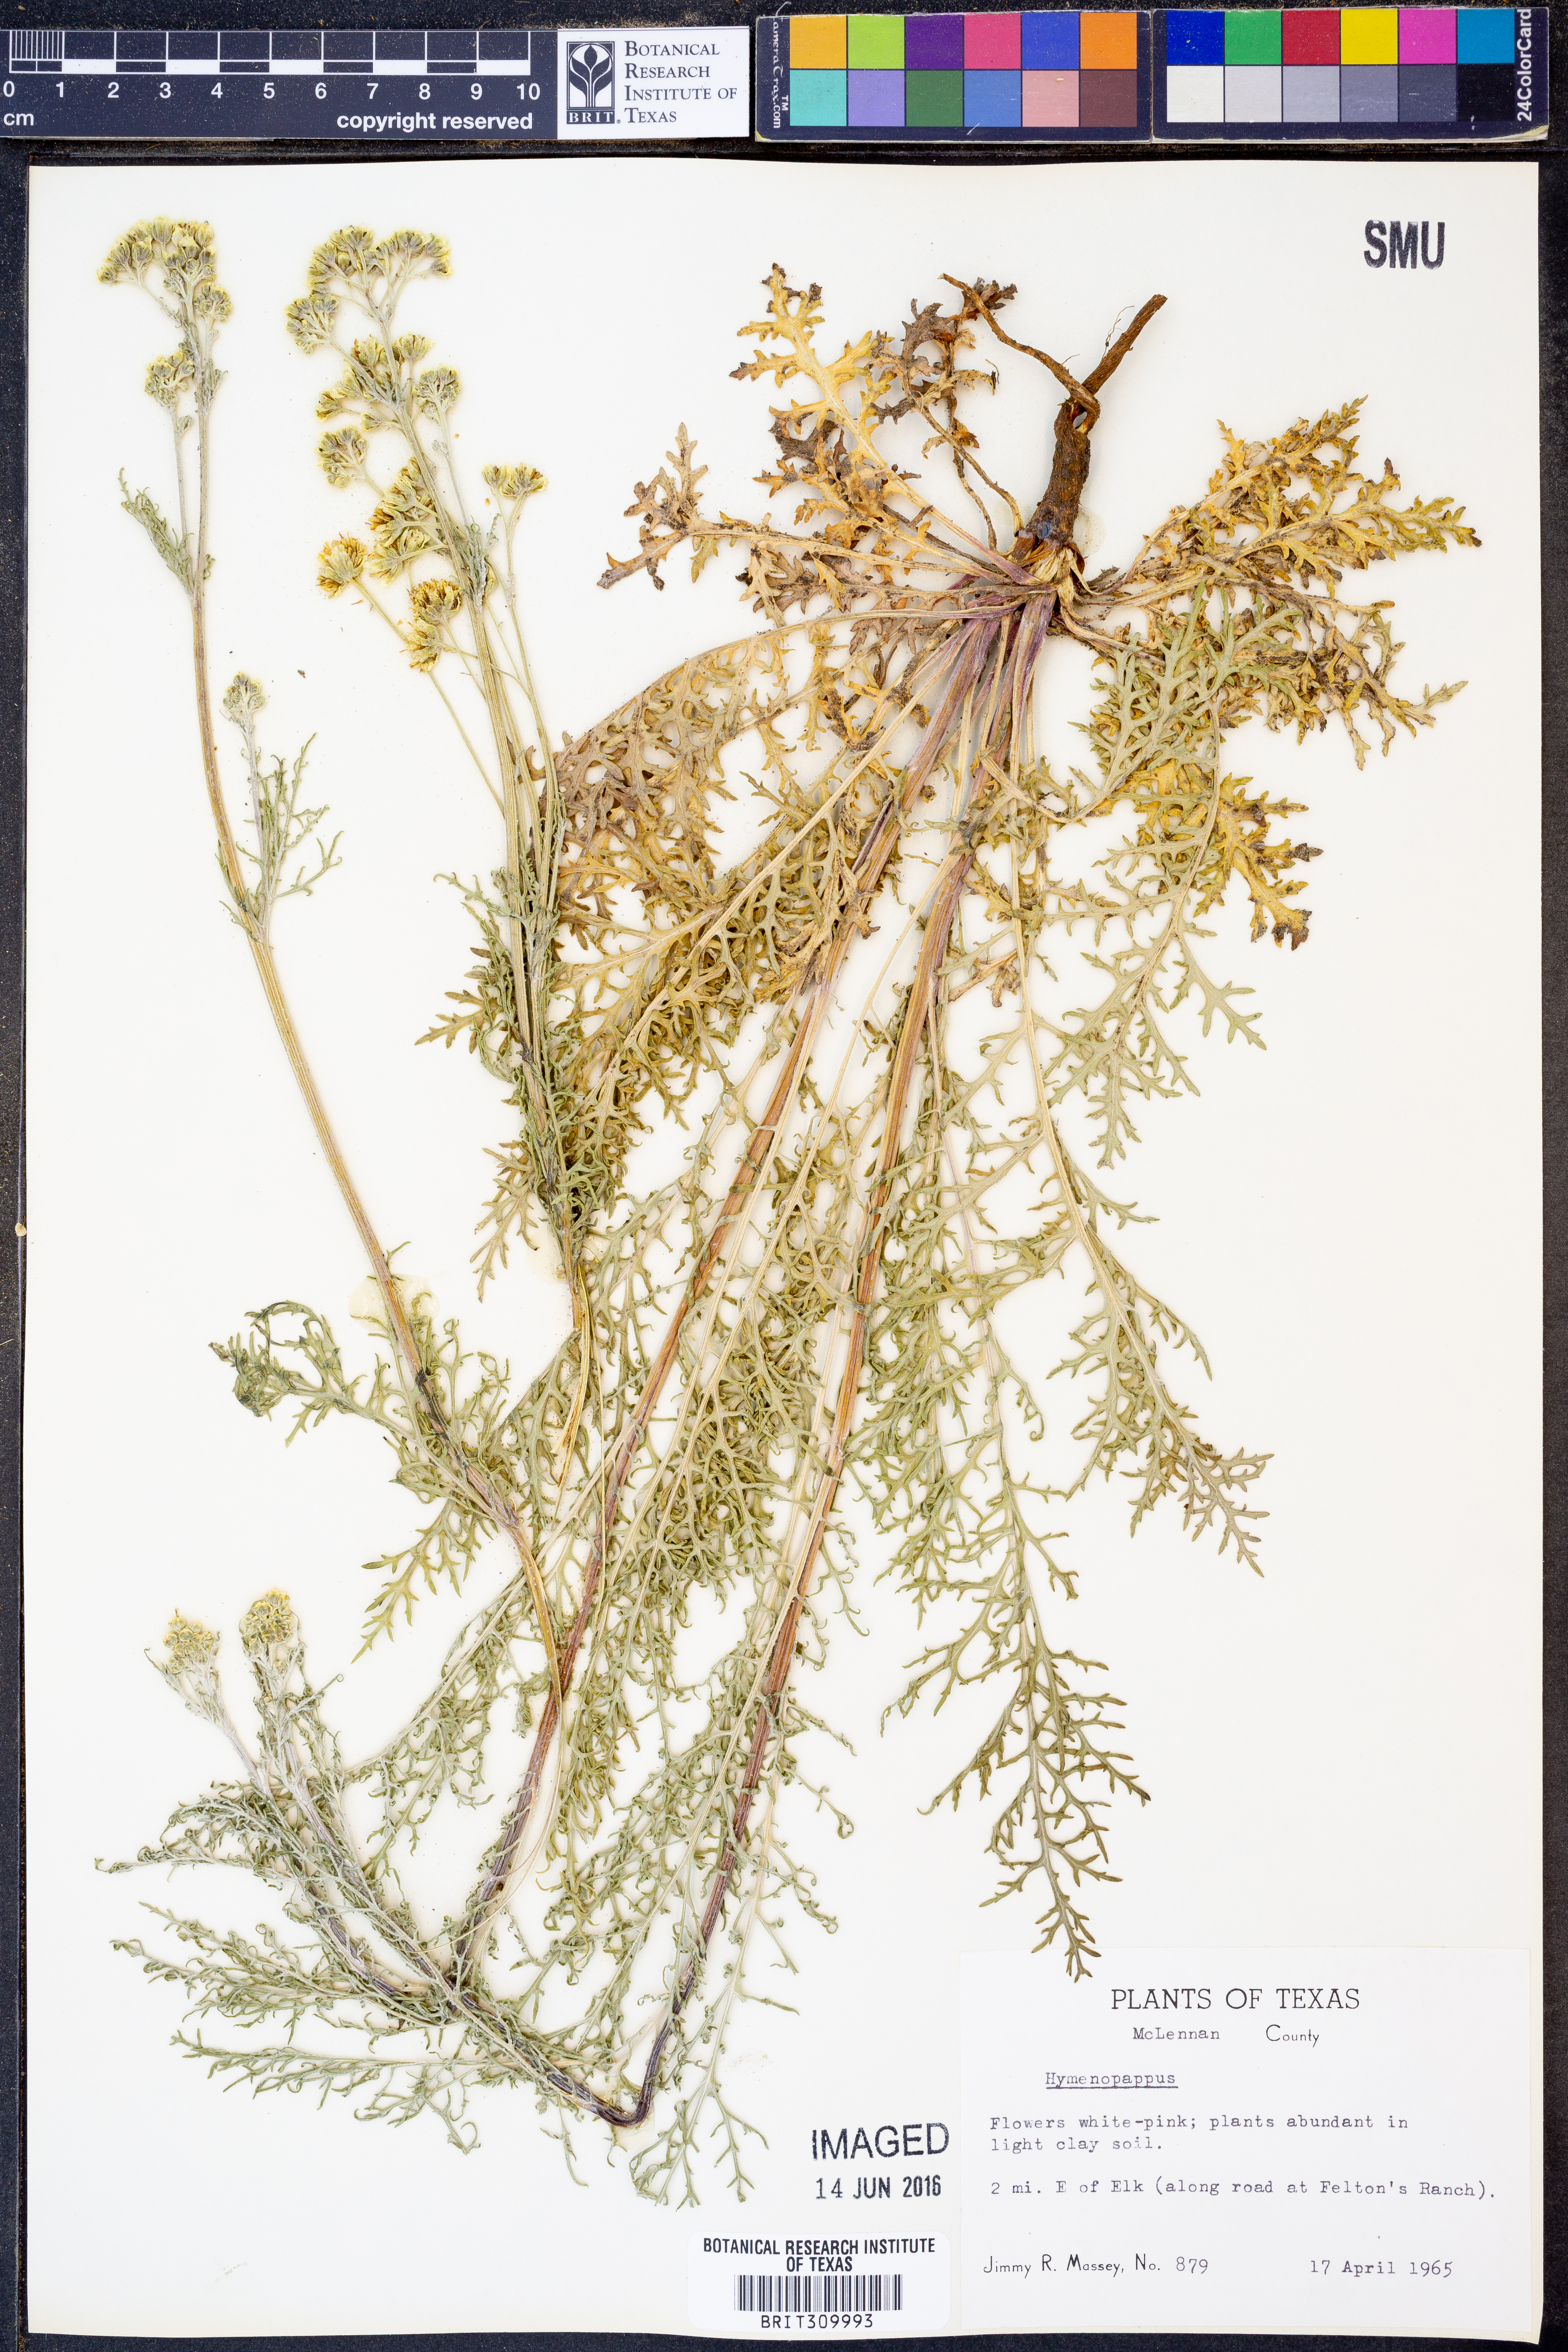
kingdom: Plantae
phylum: Tracheophyta
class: Magnoliopsida
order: Asterales
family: Asteraceae
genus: Hymenopappus
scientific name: Hymenopappus
